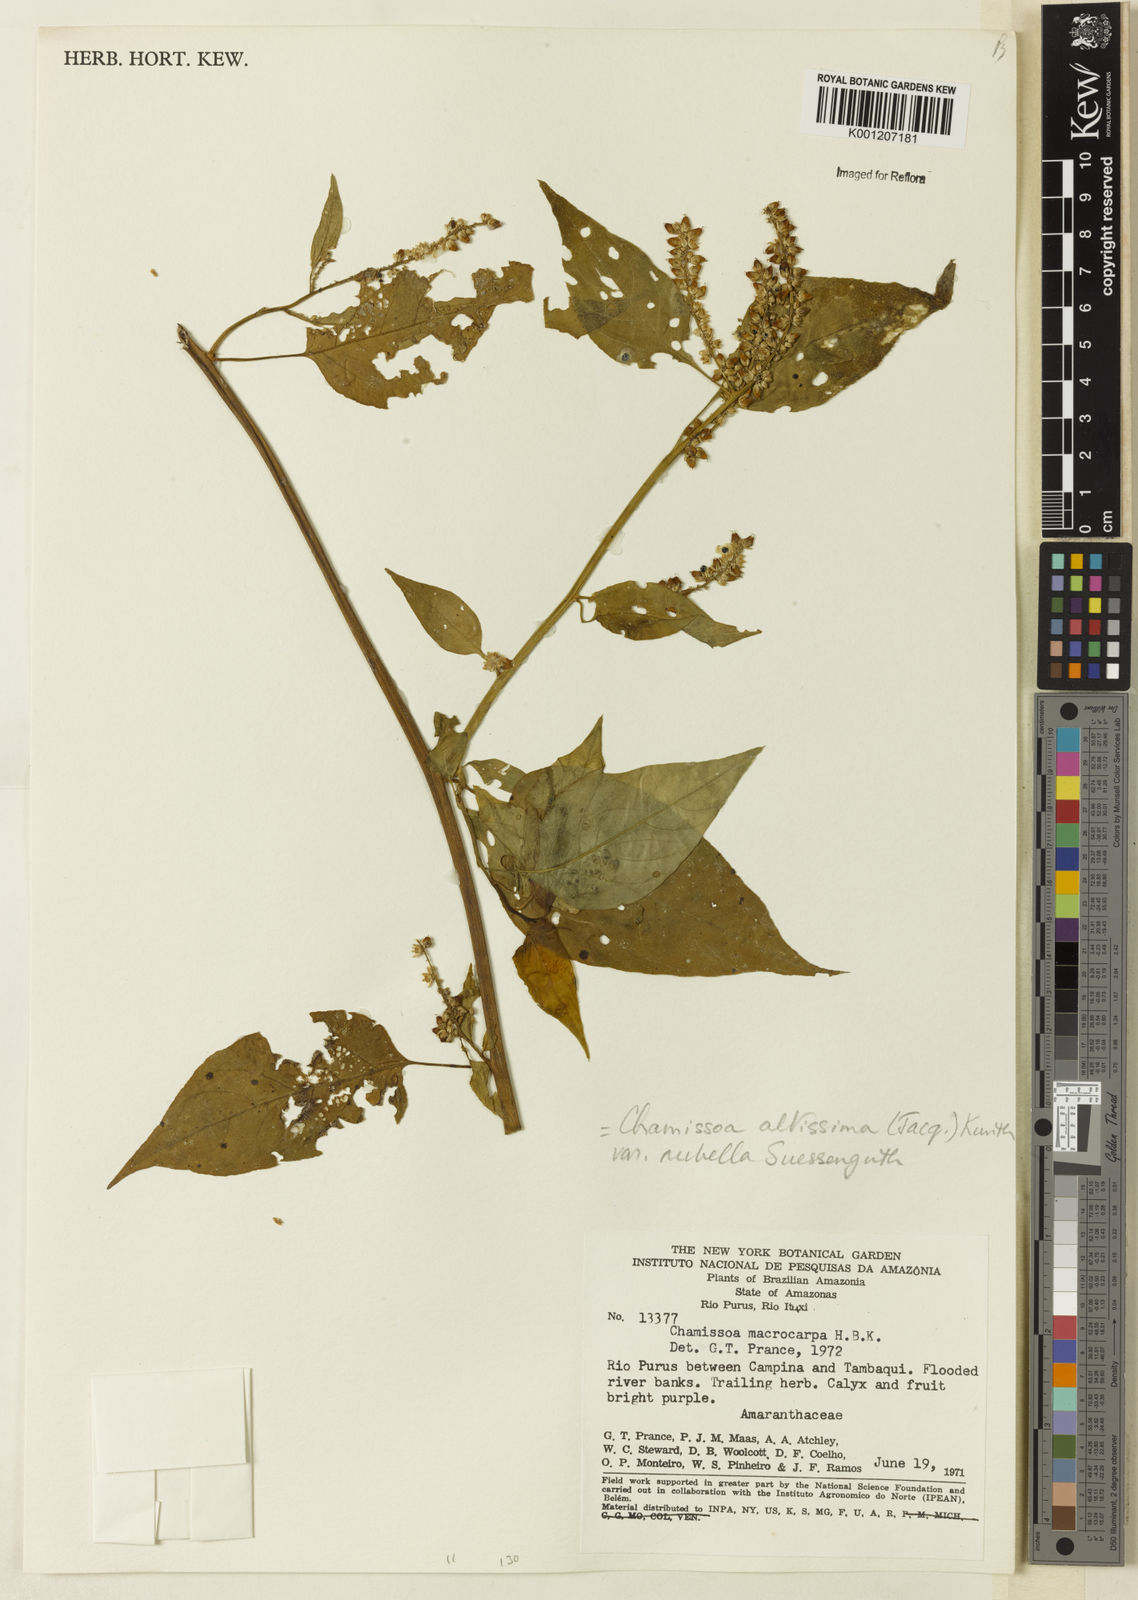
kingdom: Plantae
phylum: Tracheophyta
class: Magnoliopsida
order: Caryophyllales
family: Amaranthaceae
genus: Chamissoa
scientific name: Chamissoa altissima
